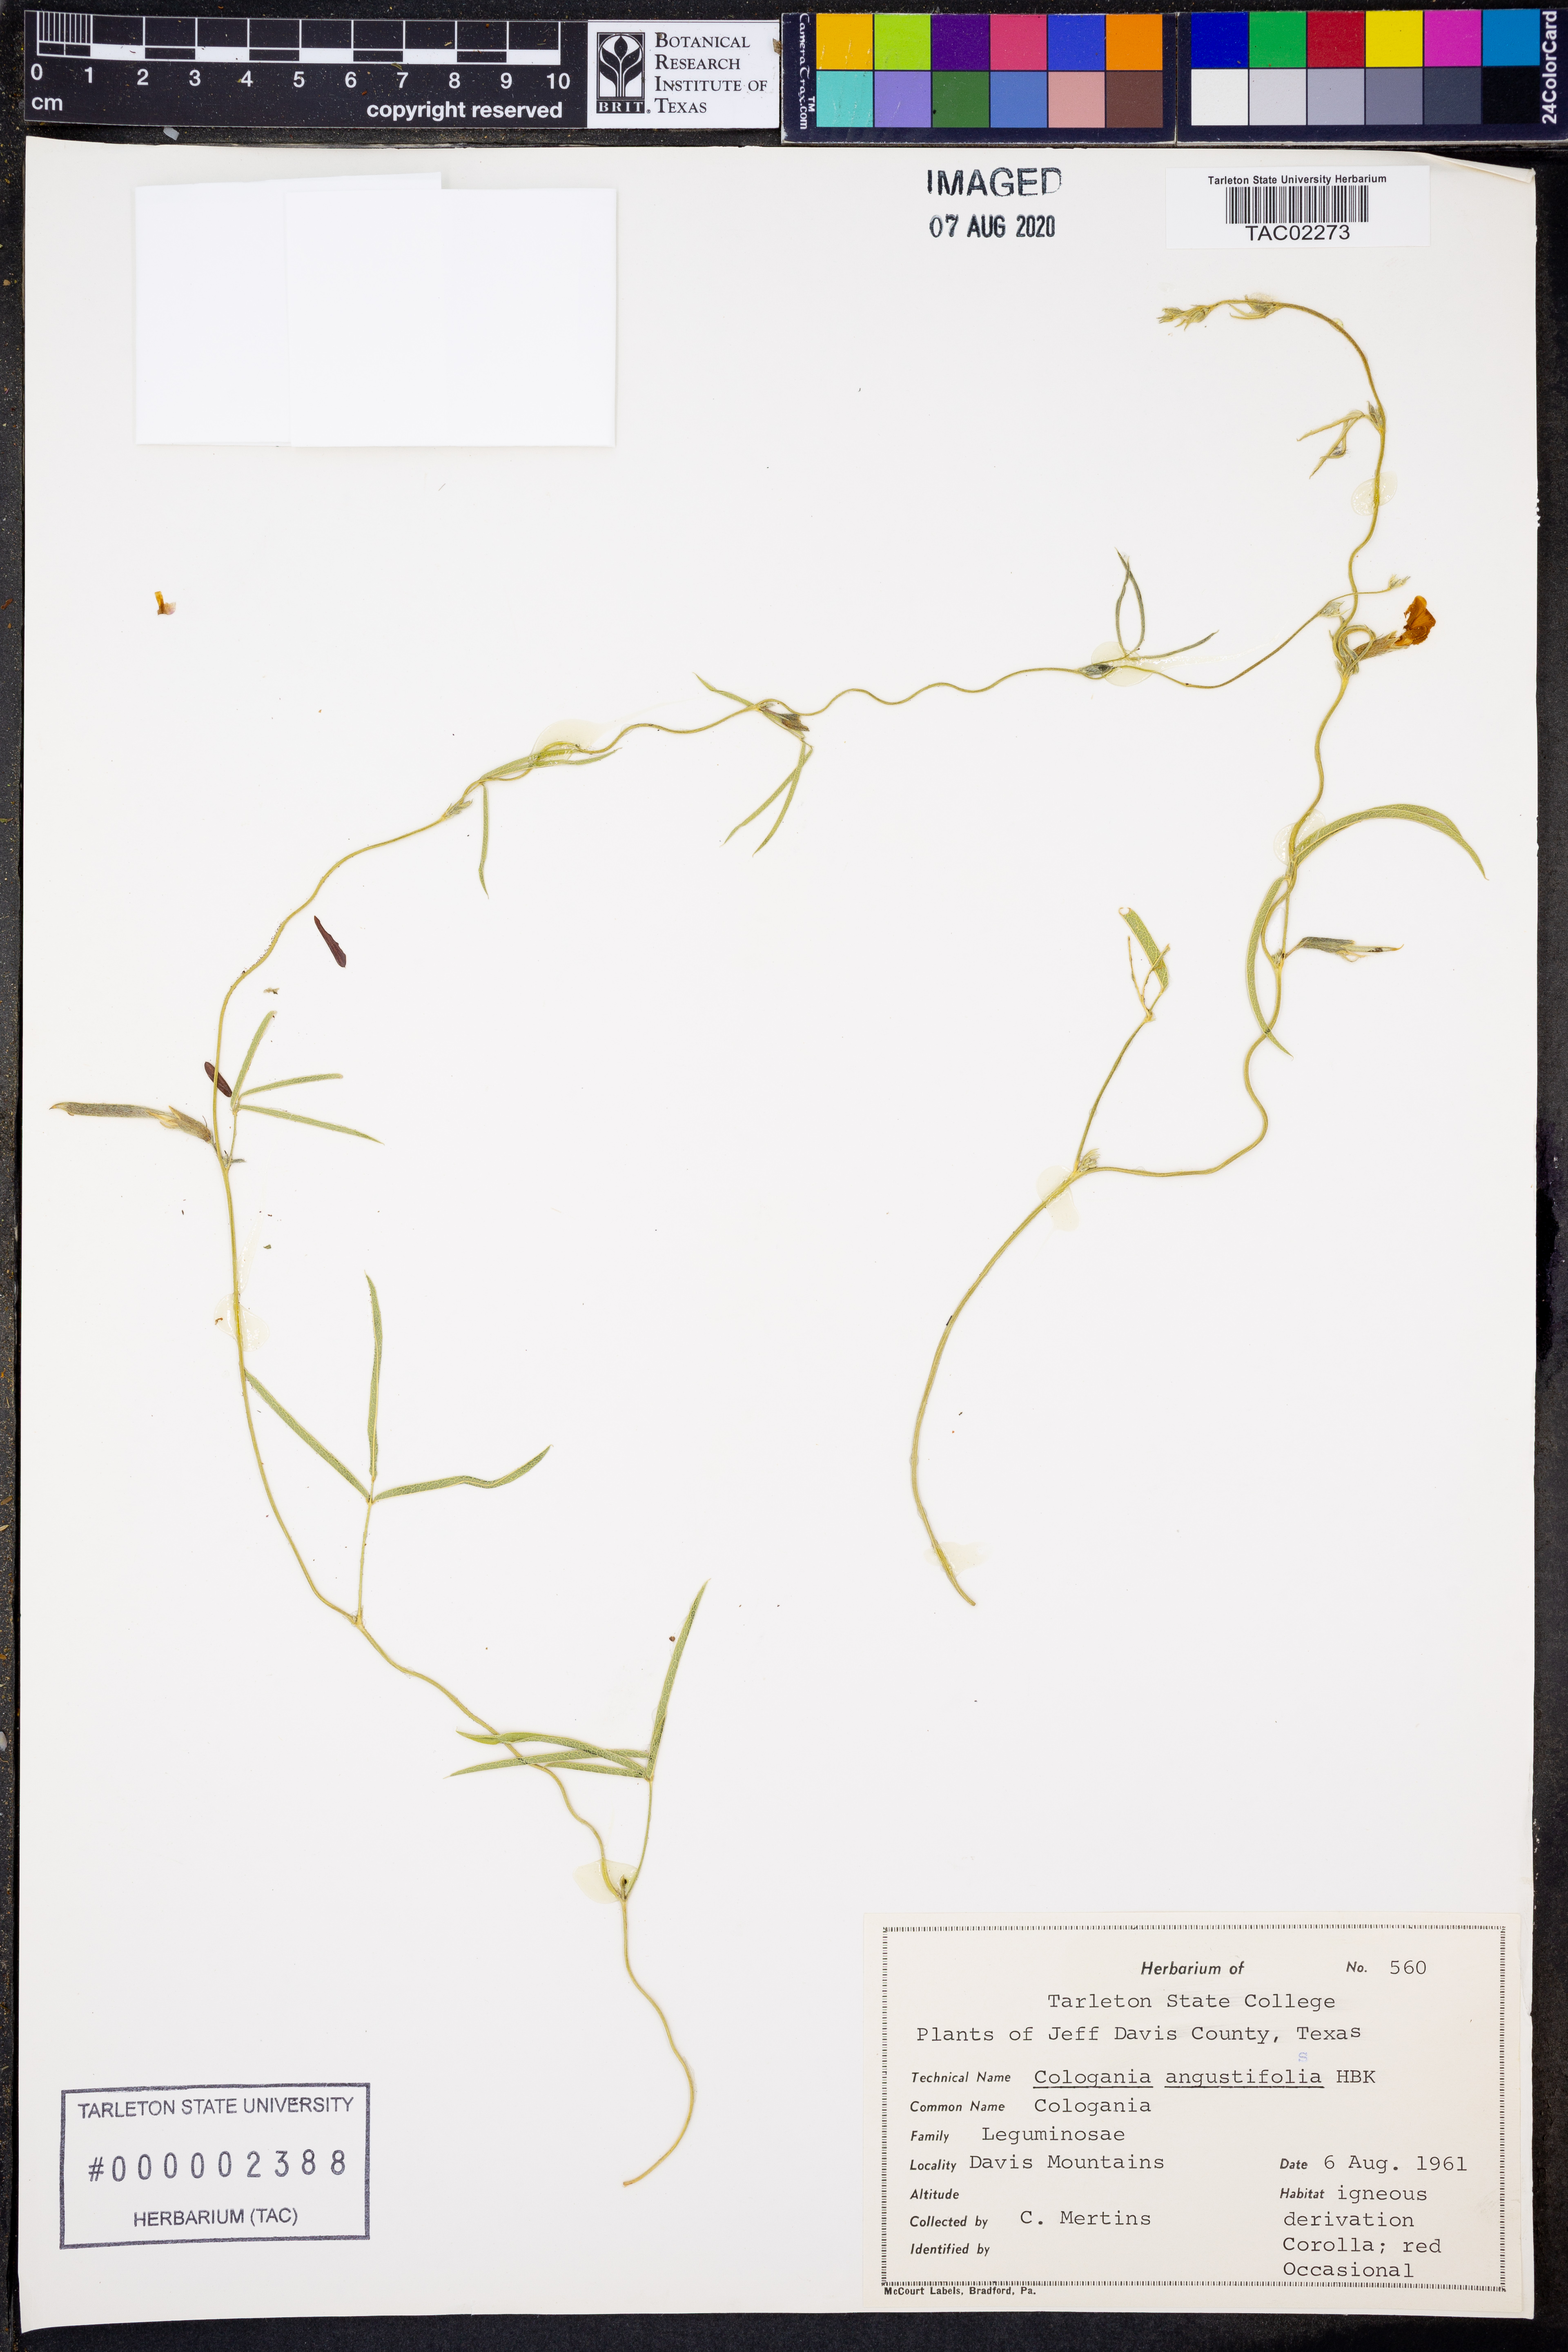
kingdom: Plantae
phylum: Tracheophyta
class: Magnoliopsida
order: Fabales
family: Fabaceae
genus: Cologania
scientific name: Cologania angustifolia
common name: Longleaf cologania
